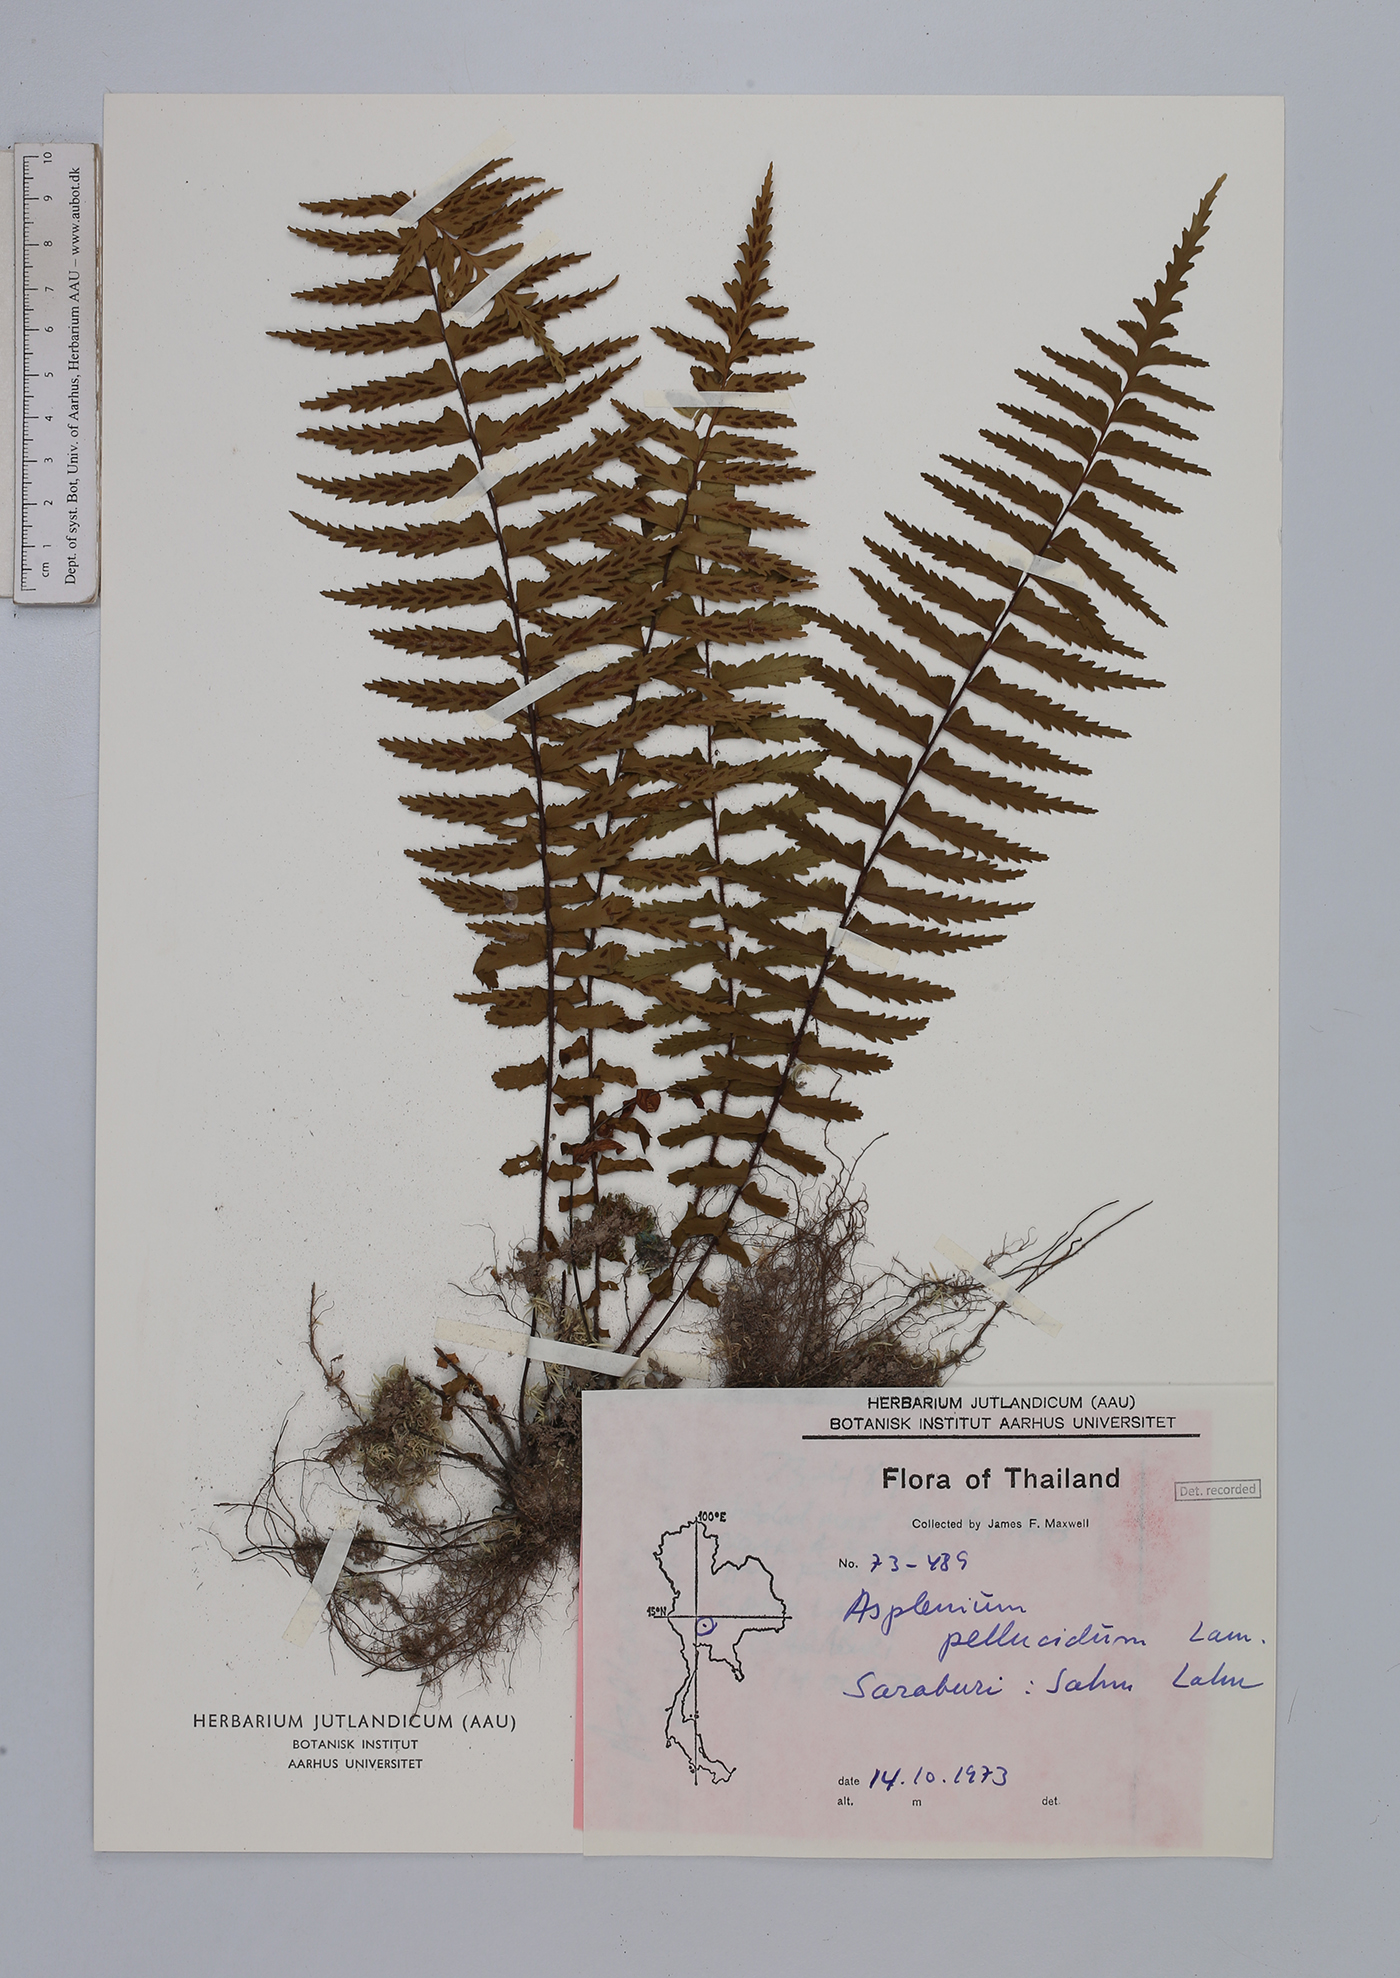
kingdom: Plantae
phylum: Tracheophyta
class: Polypodiopsida
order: Polypodiales
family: Aspleniaceae
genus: Asplenium
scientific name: Asplenium pellucidum
